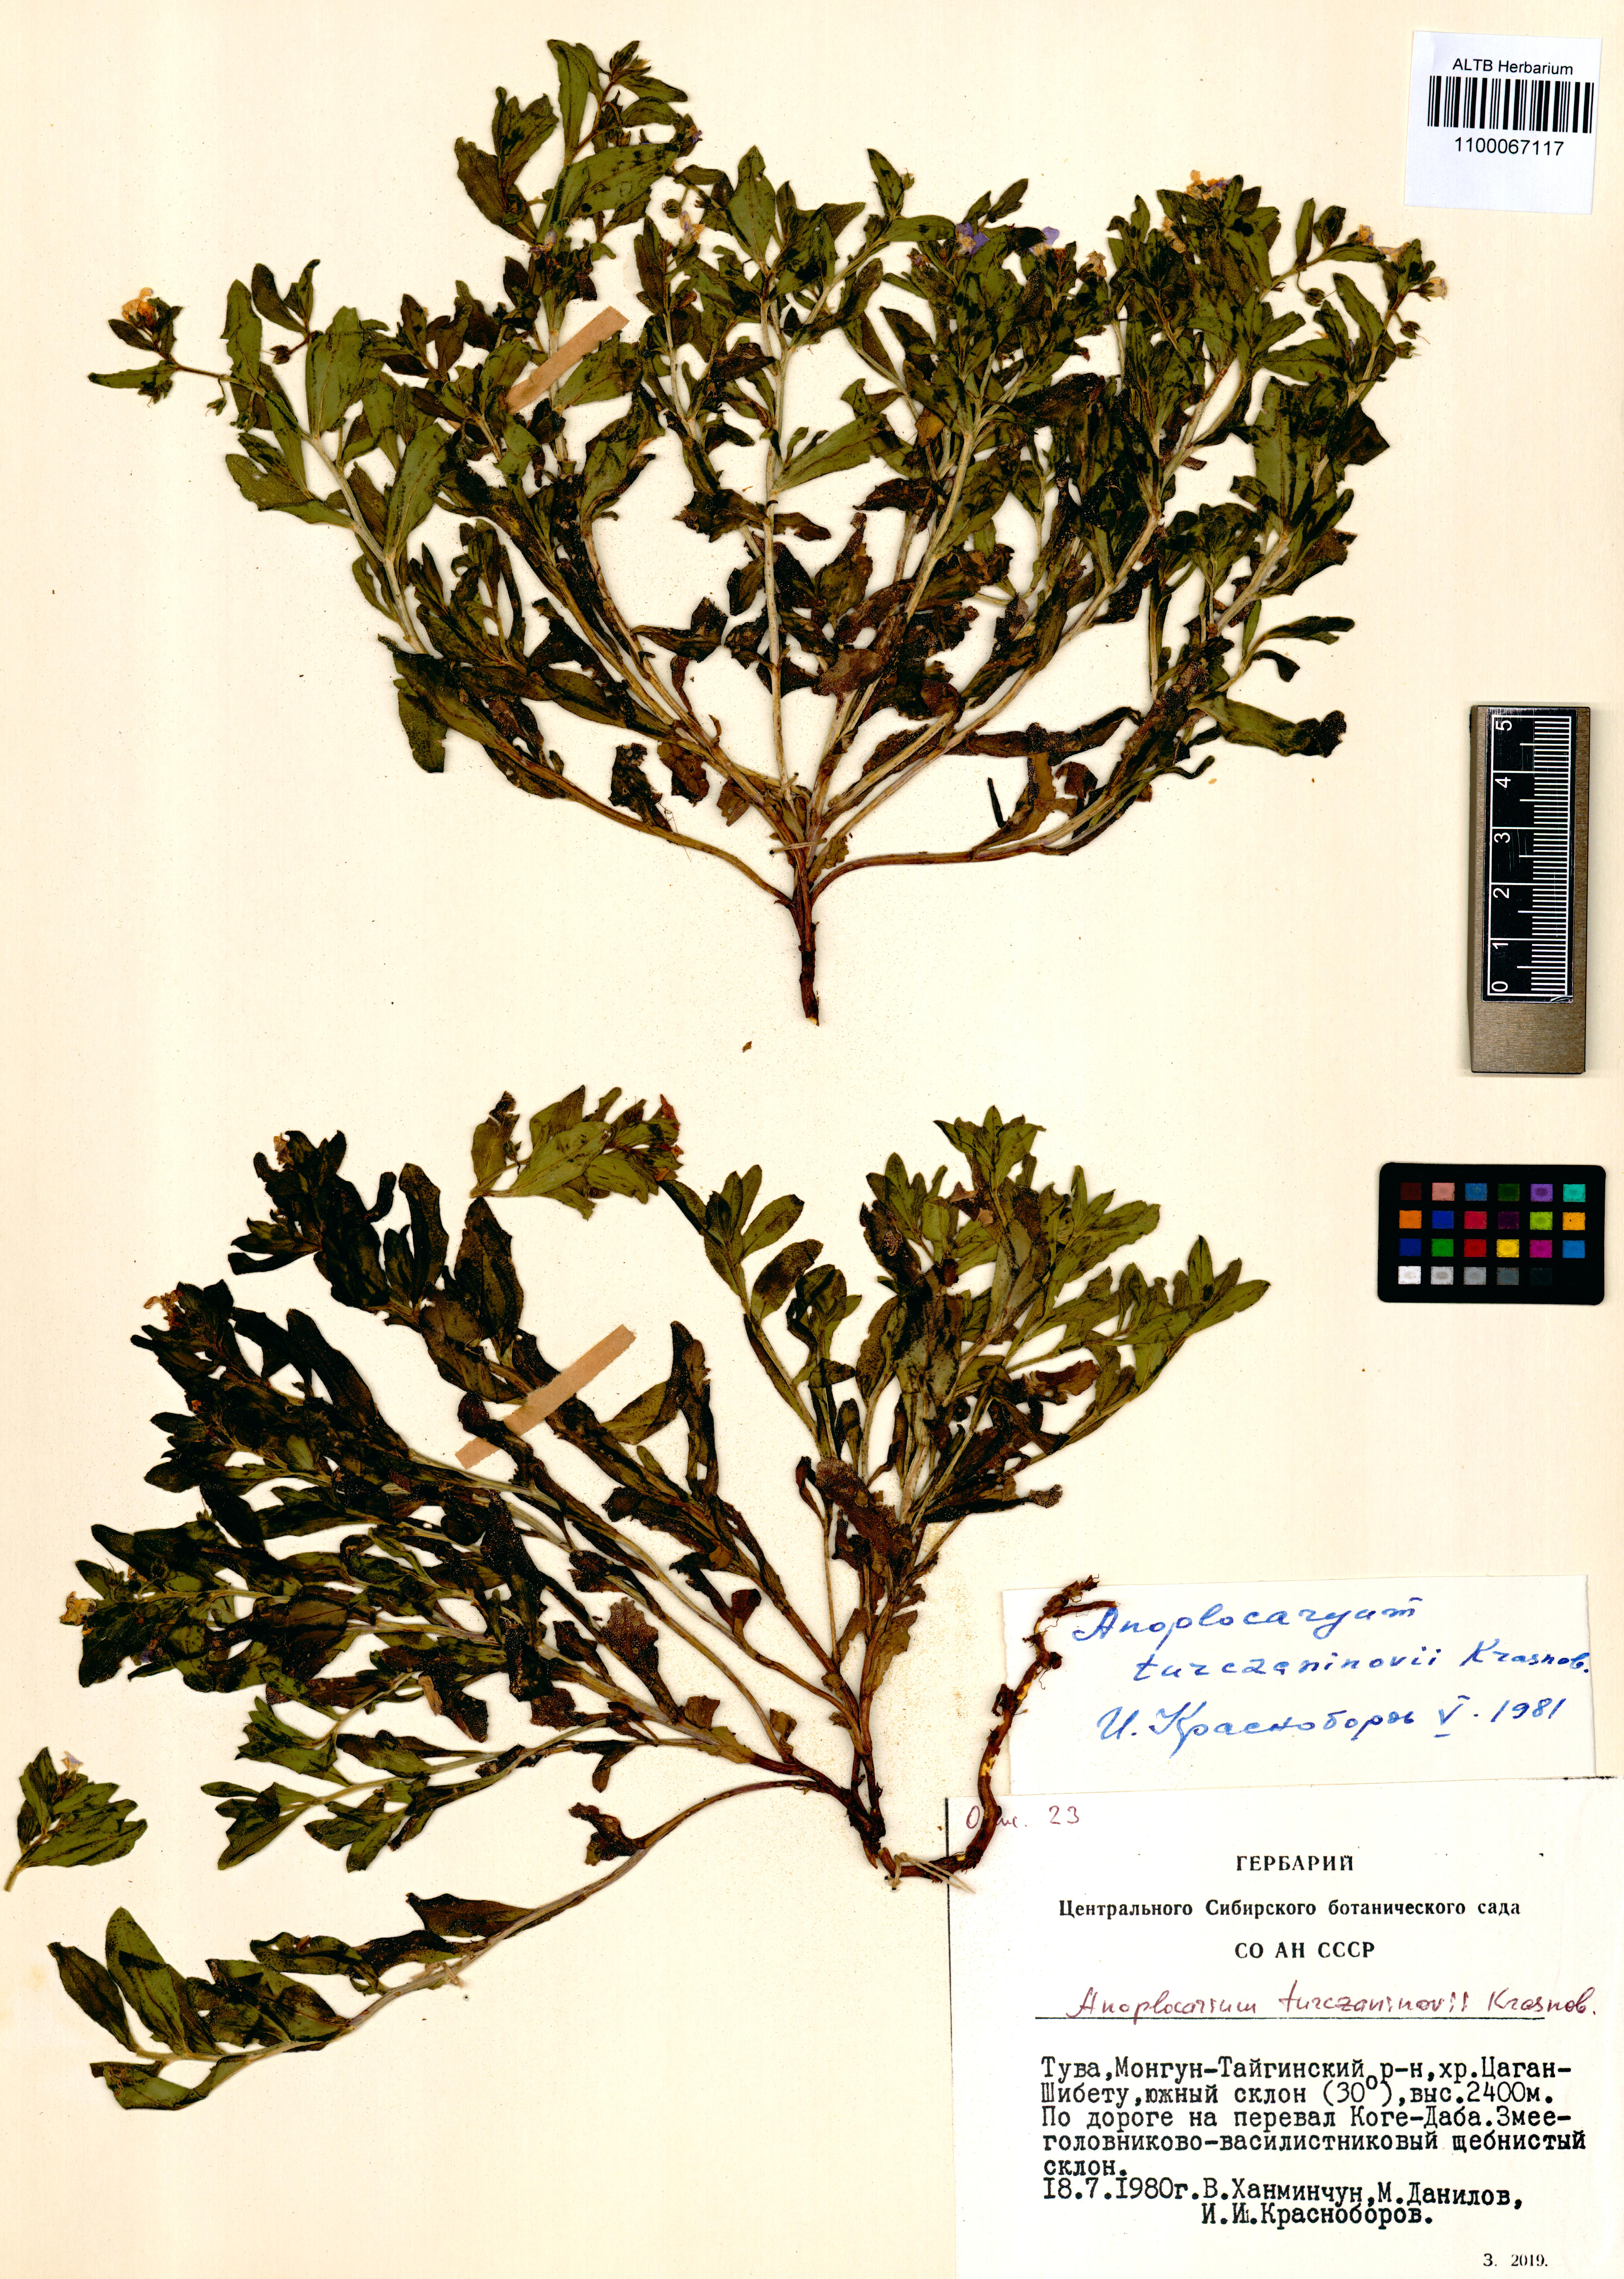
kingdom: Plantae
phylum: Tracheophyta
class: Magnoliopsida
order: Boraginales
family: Boraginaceae
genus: Anoplocaryum
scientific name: Anoplocaryum turczaninovii
